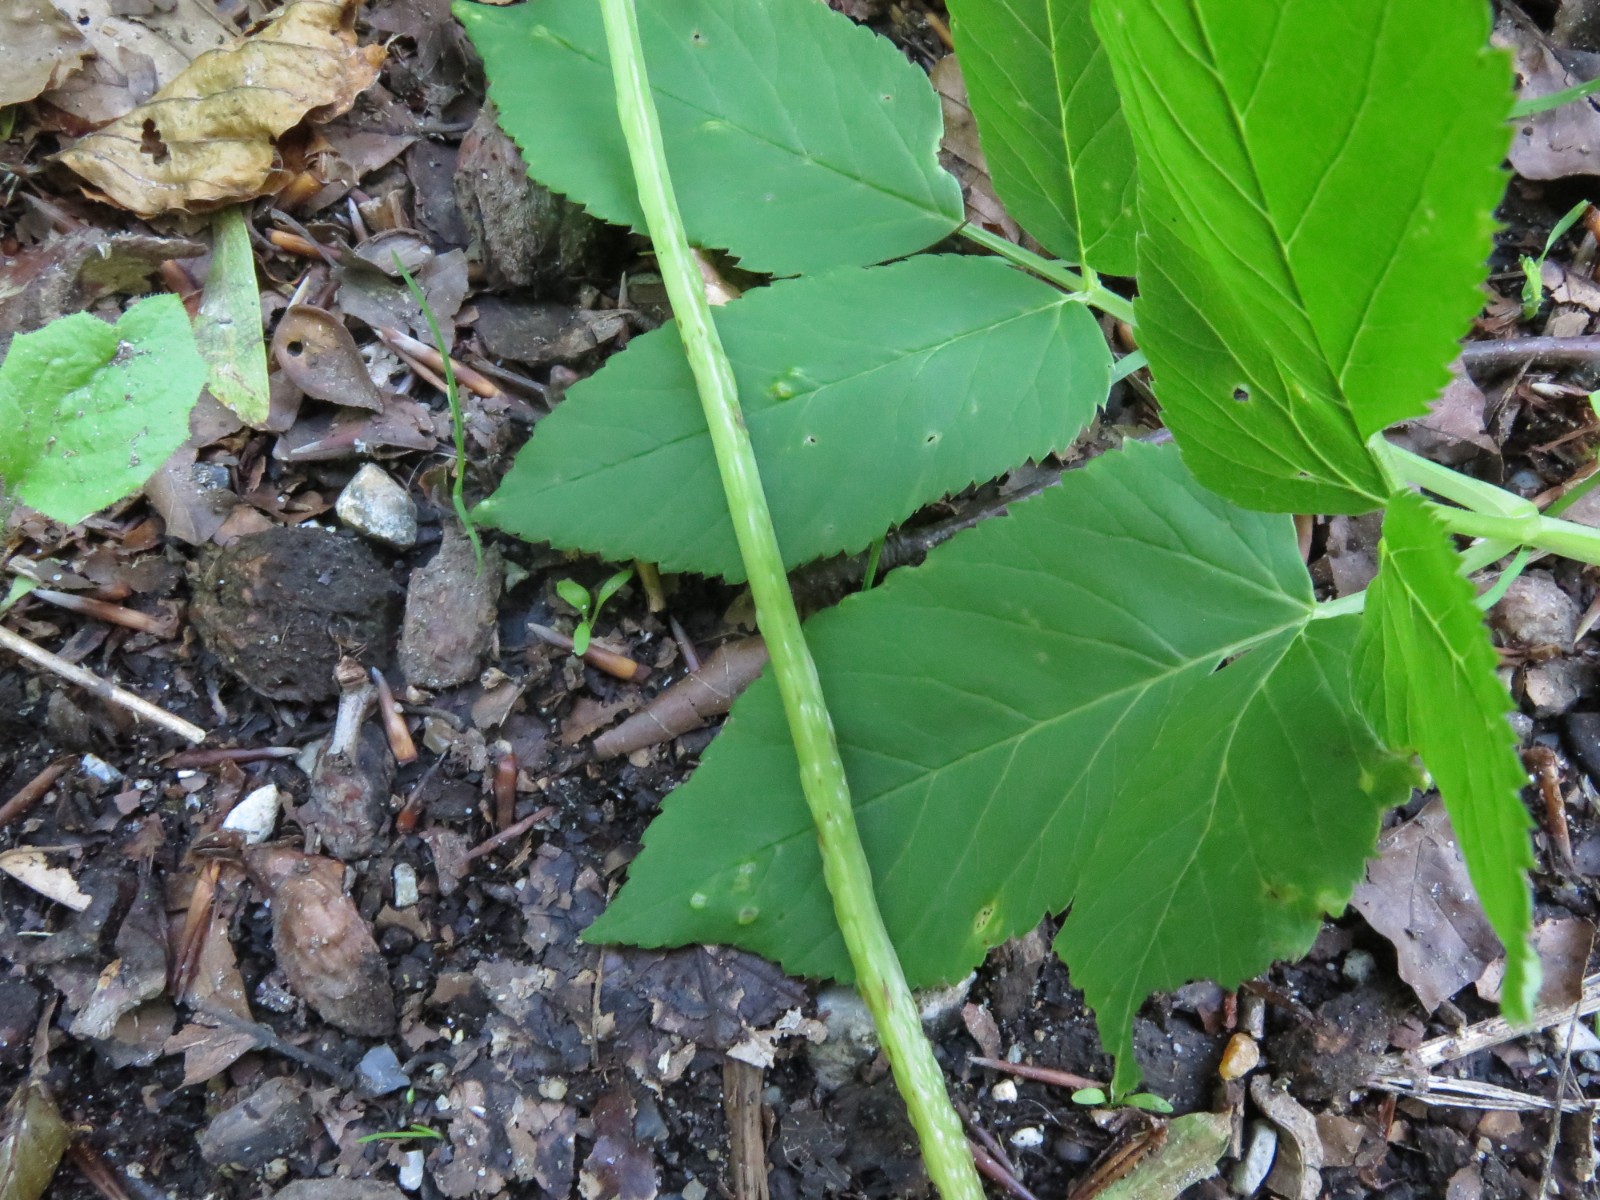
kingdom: Fungi
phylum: Ascomycota
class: Taphrinomycetes
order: Taphrinales
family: Taphrinaceae
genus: Protomyces
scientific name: Protomyces macrosporus
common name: skvalderkål-vablesæk
